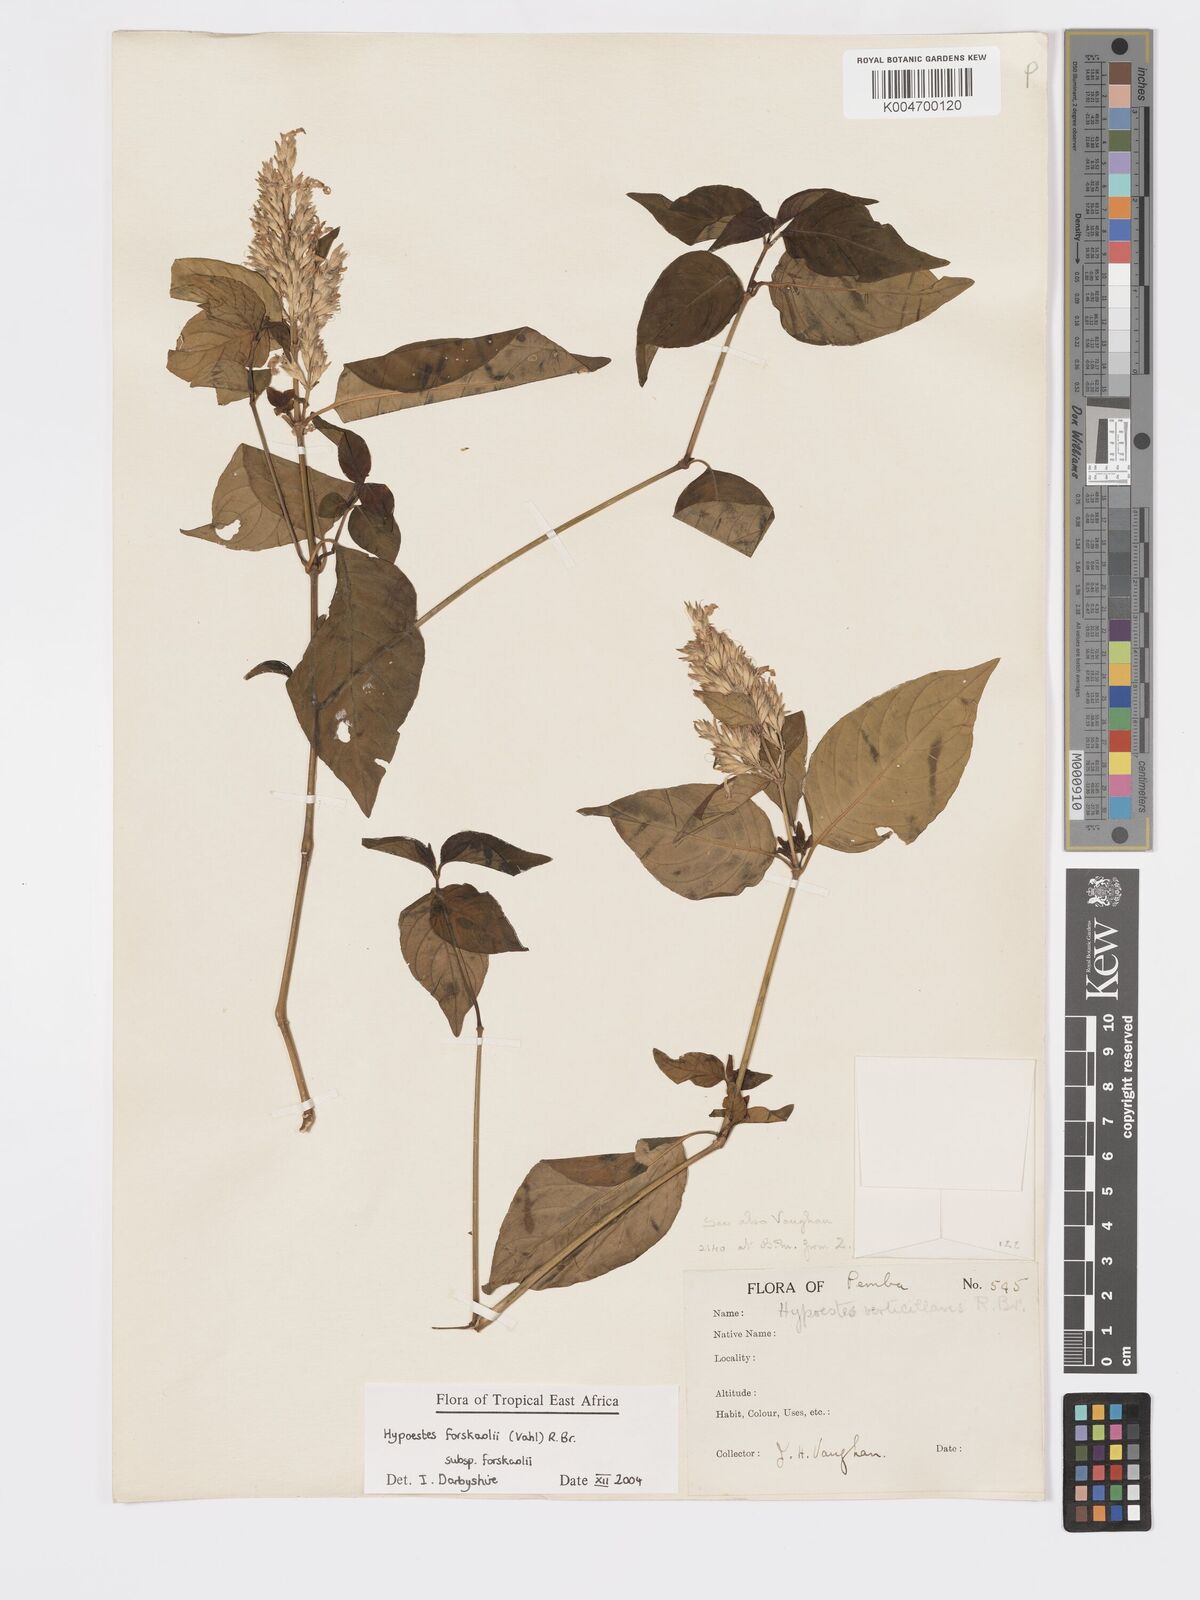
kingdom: Plantae
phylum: Tracheophyta
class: Magnoliopsida
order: Lamiales
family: Acanthaceae
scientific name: Acanthaceae
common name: Acanthaceae
